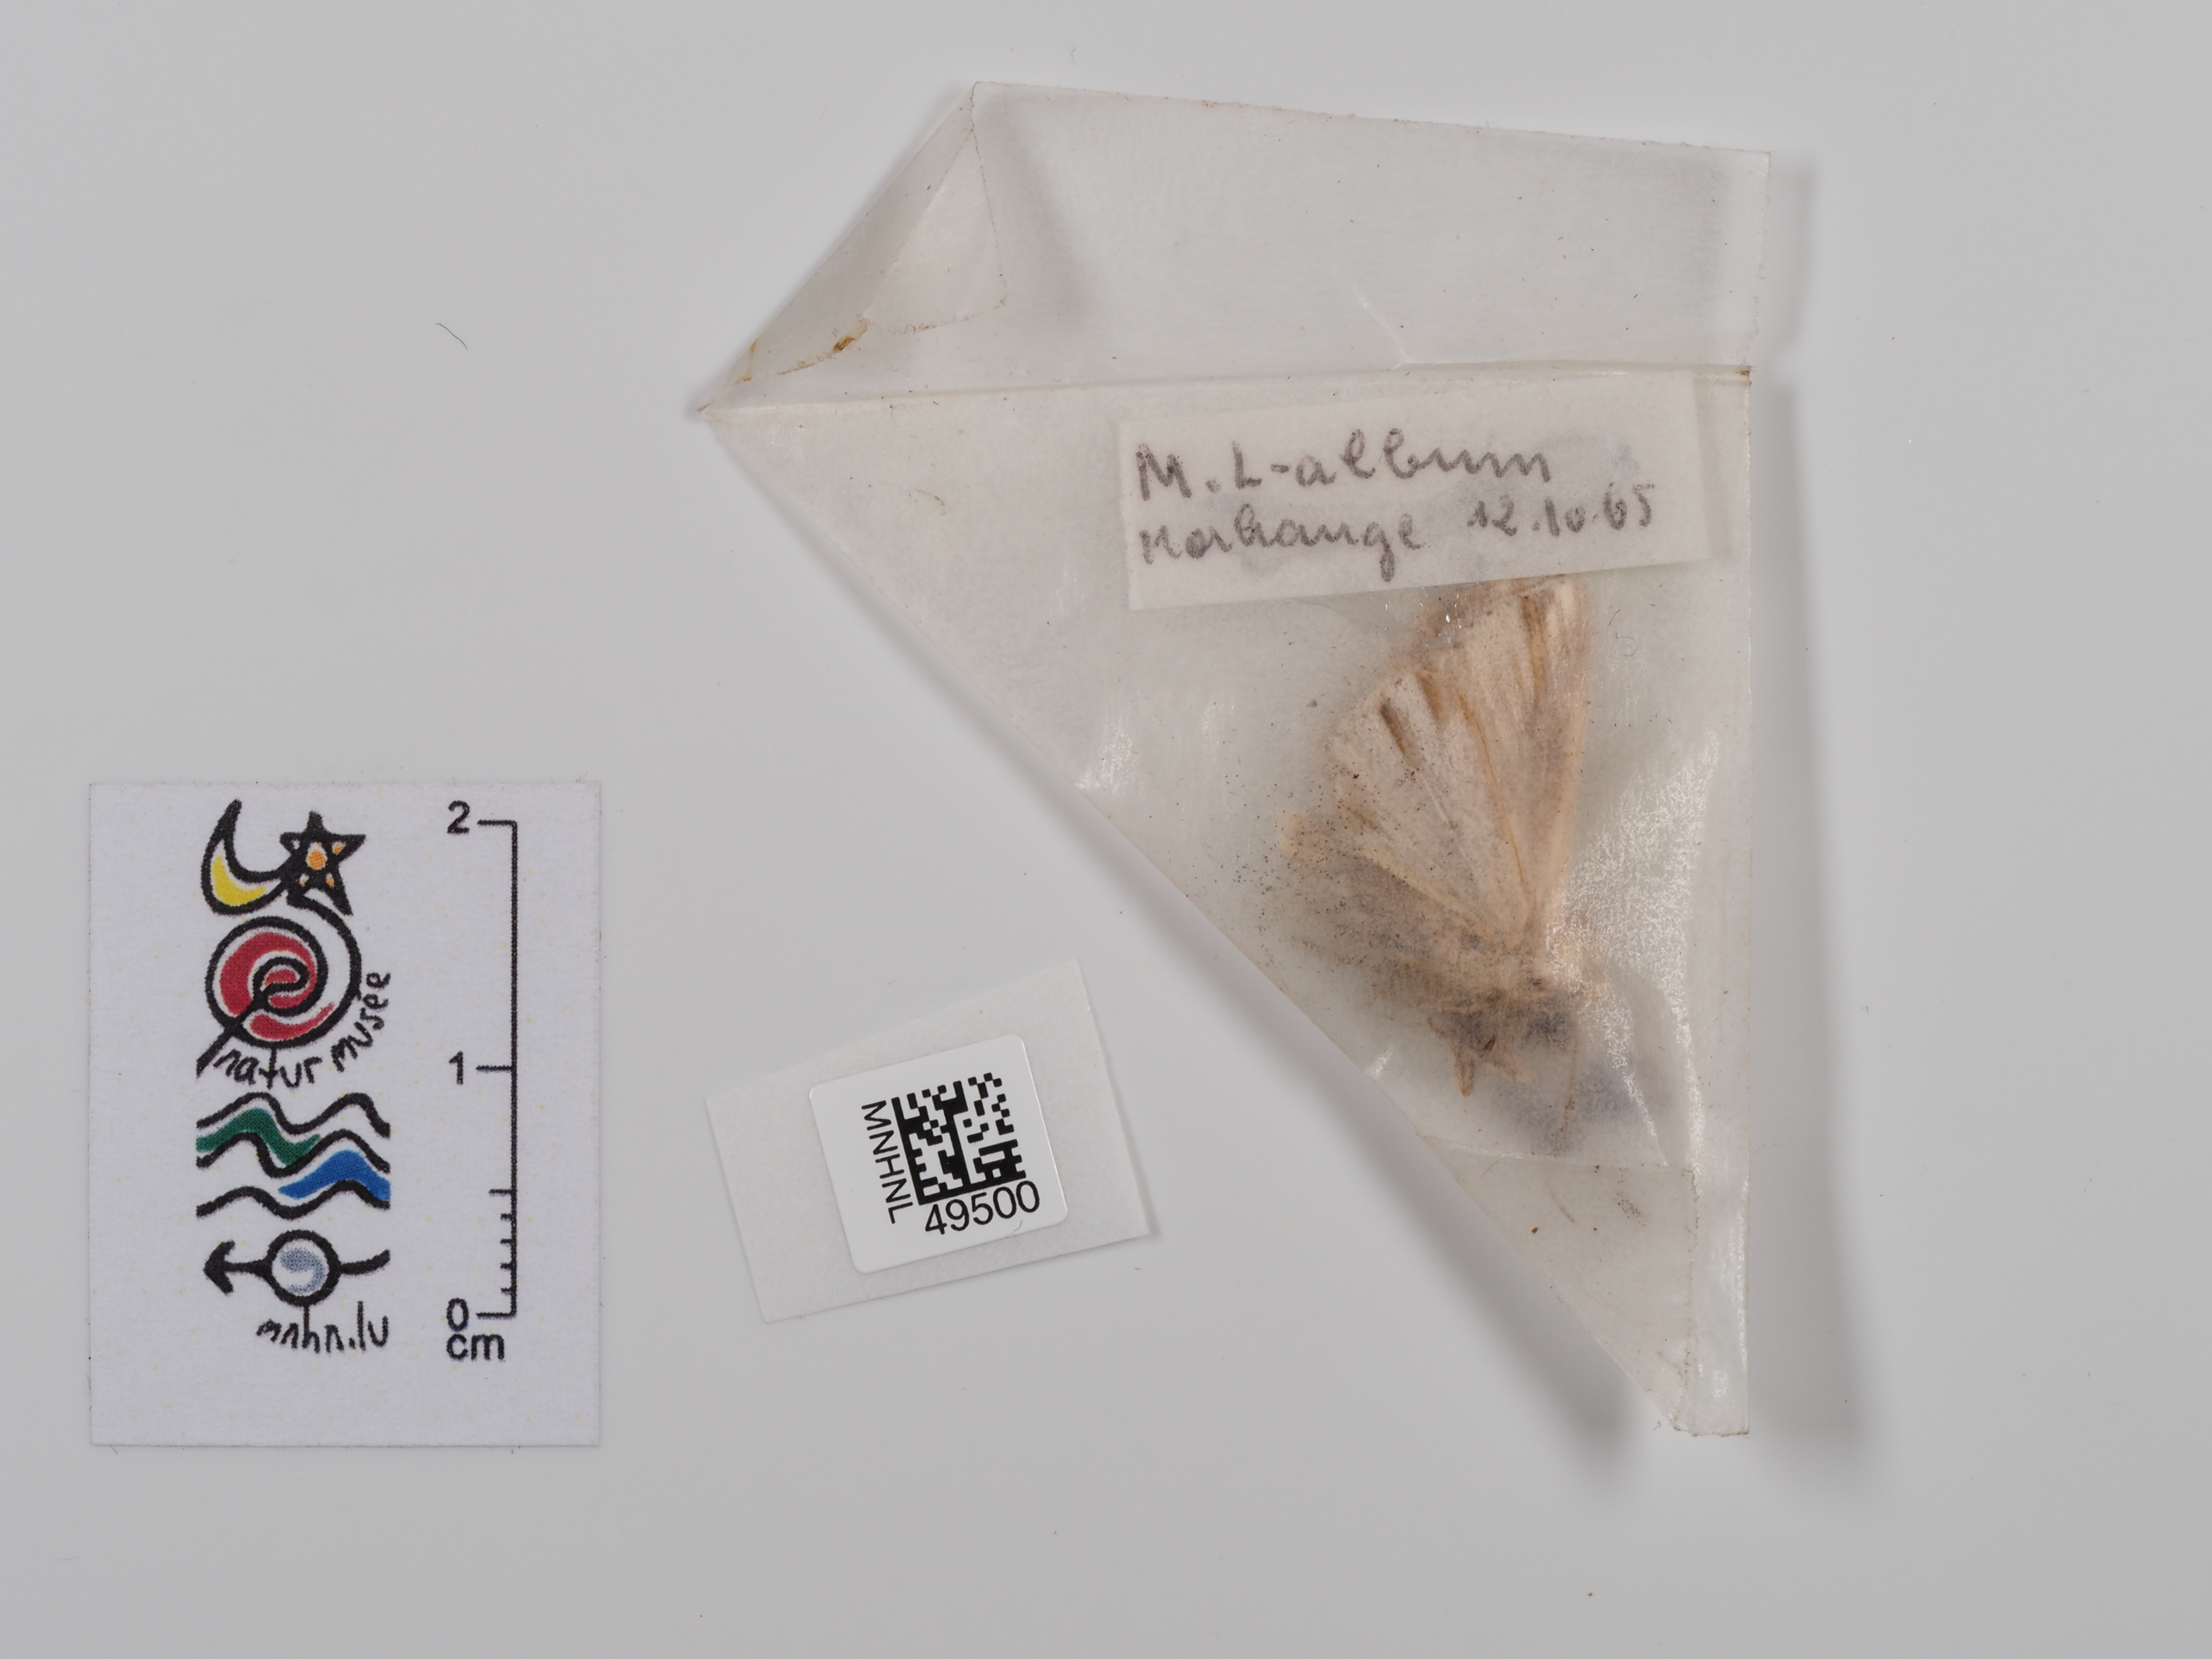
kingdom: Animalia
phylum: Arthropoda
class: Insecta
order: Lepidoptera
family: Noctuidae
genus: Mythimna
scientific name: Mythimna l-album
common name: L-album wainscot
